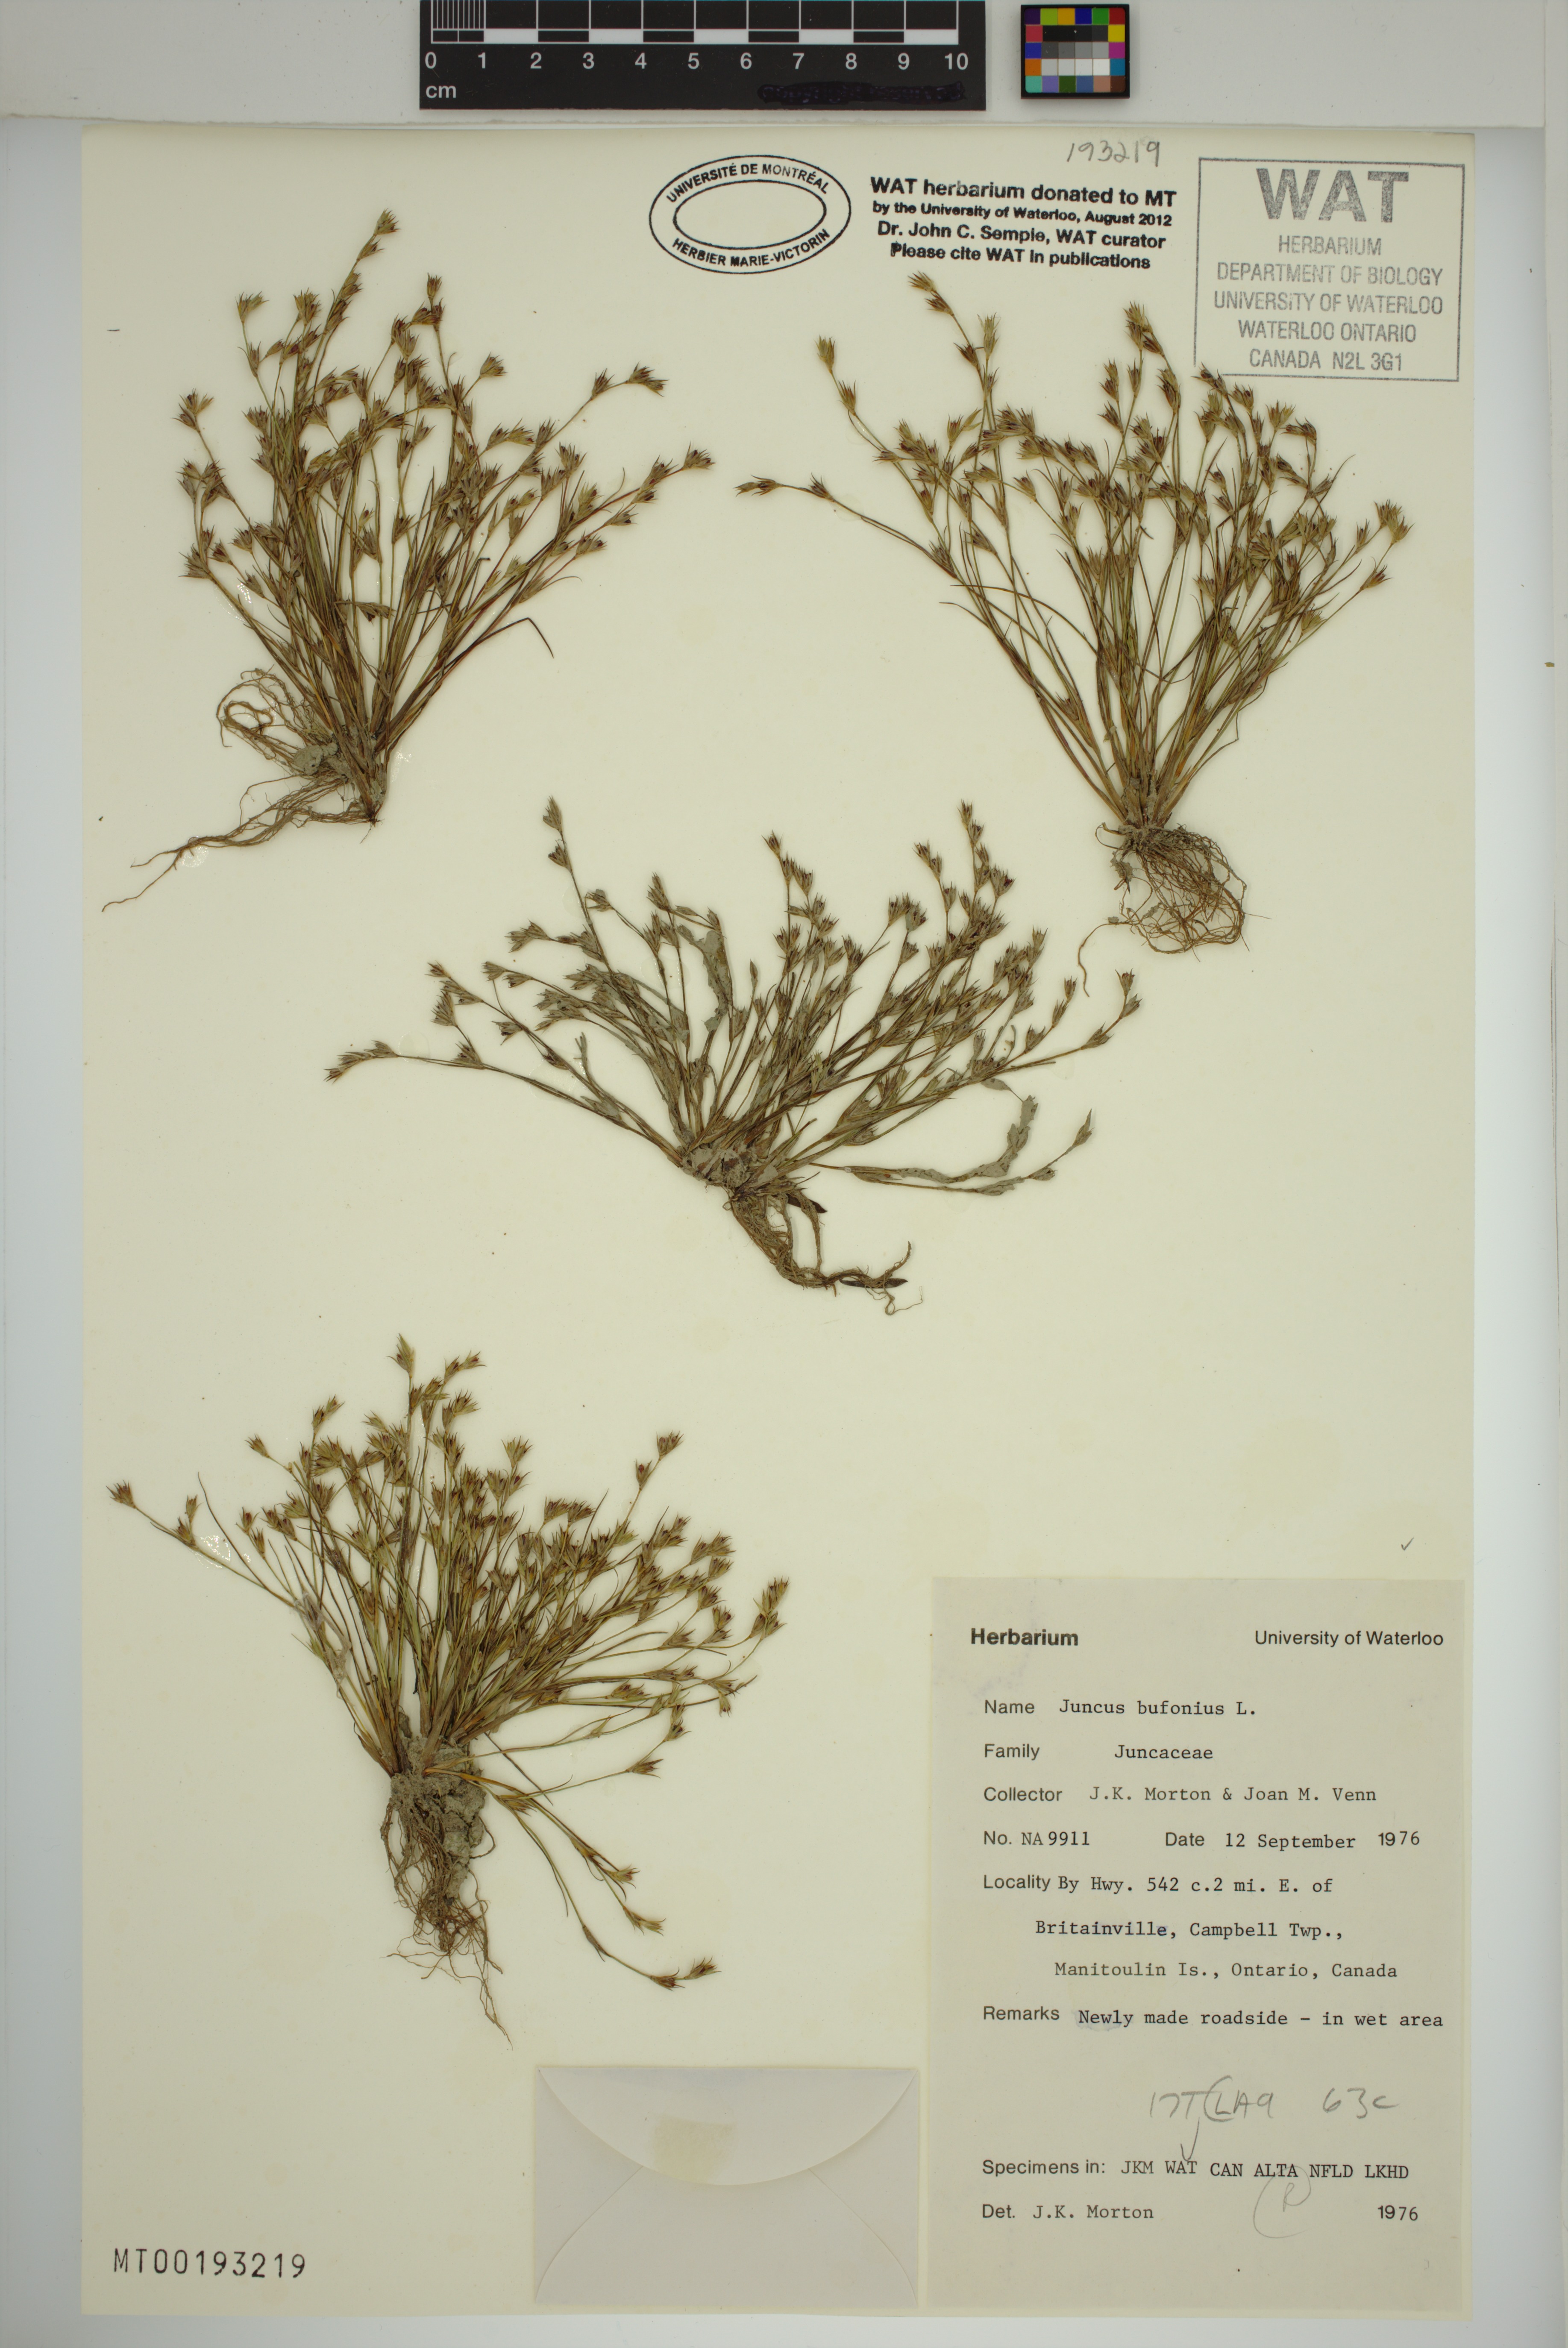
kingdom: Plantae
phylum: Tracheophyta
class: Liliopsida
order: Poales
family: Juncaceae
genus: Juncus
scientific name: Juncus bufonius
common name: Toad rush
